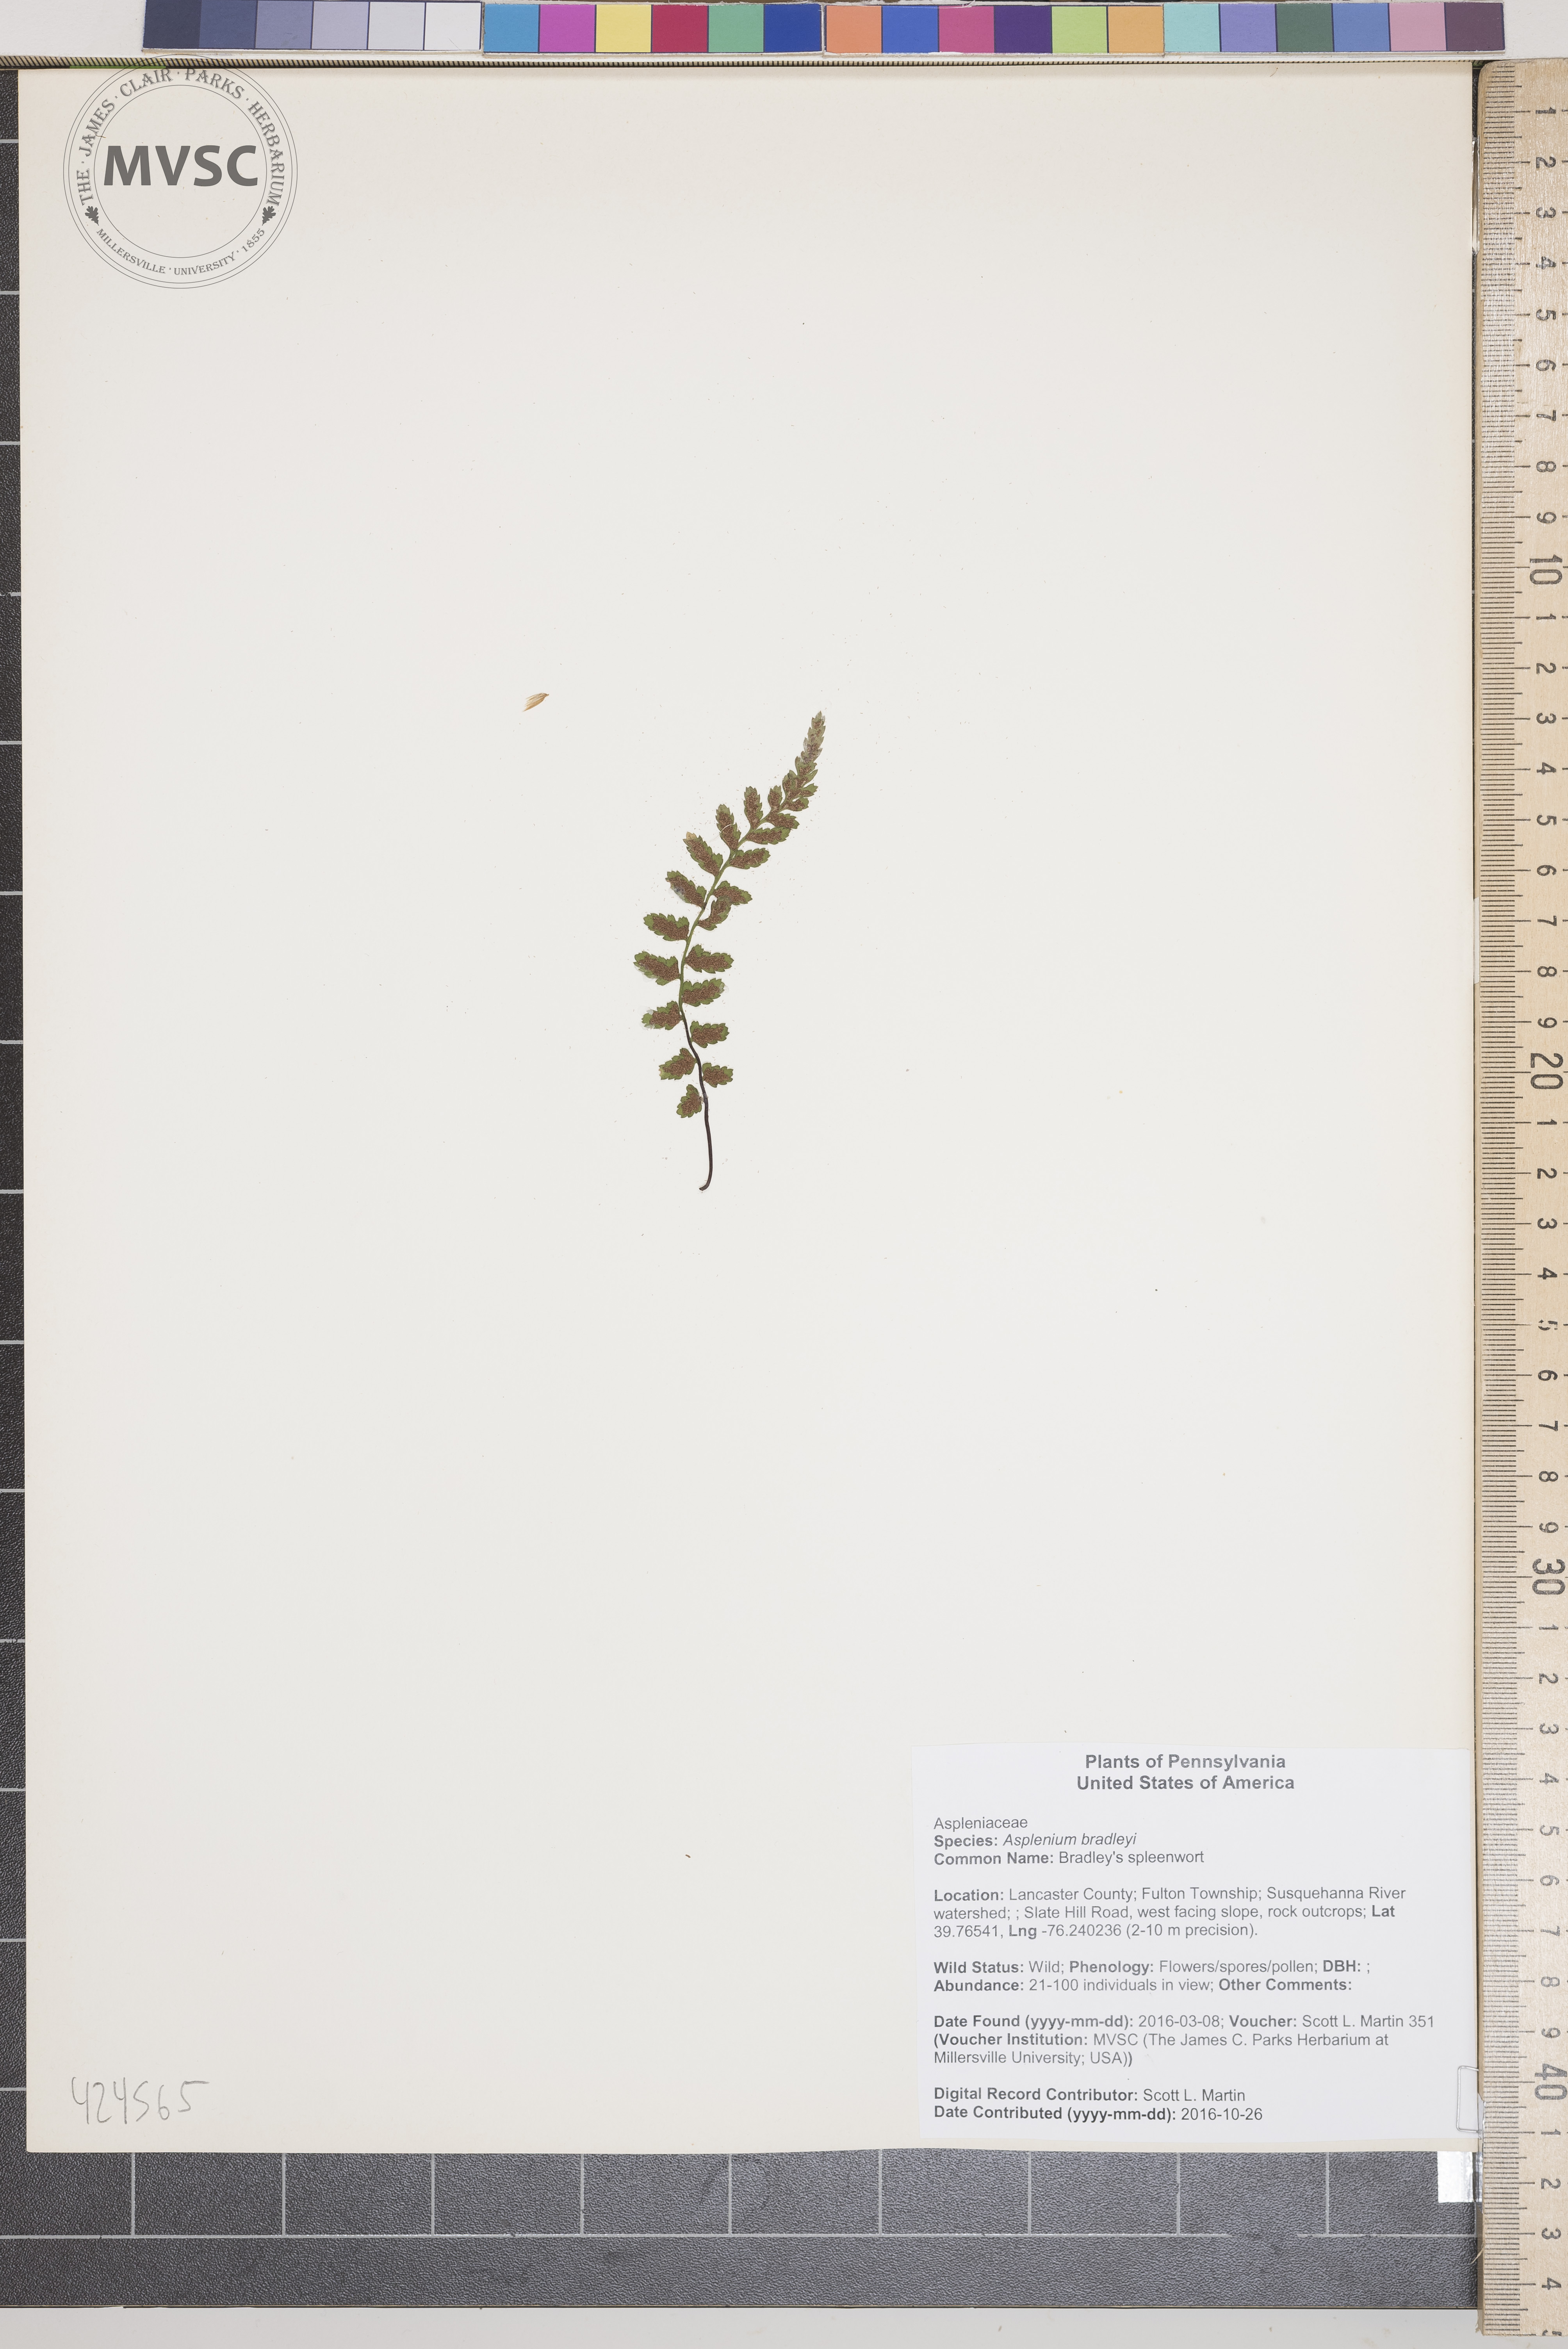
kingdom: Plantae
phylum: Tracheophyta
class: Polypodiopsida
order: Polypodiales
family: Aspleniaceae
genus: Asplenium
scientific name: Asplenium bradleyi
